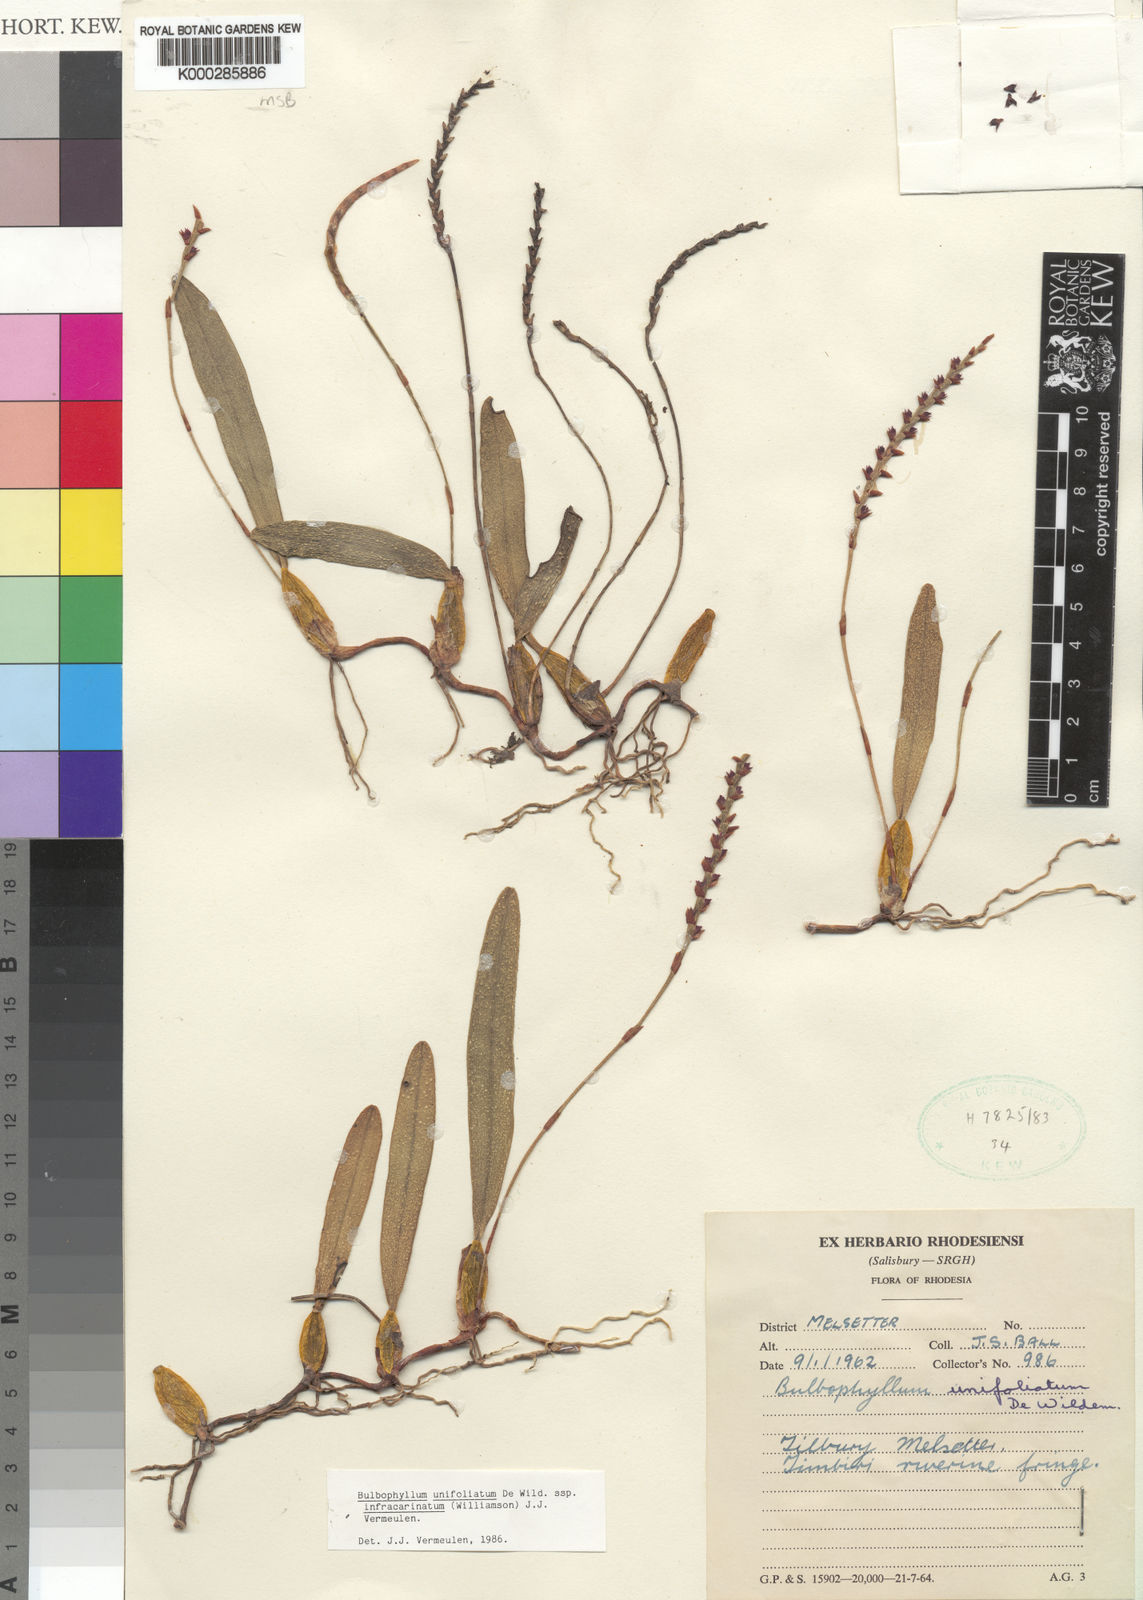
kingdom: Plantae
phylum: Tracheophyta
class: Liliopsida
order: Asparagales
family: Orchidaceae
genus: Bulbophyllum
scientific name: Bulbophyllum unifoliatum
